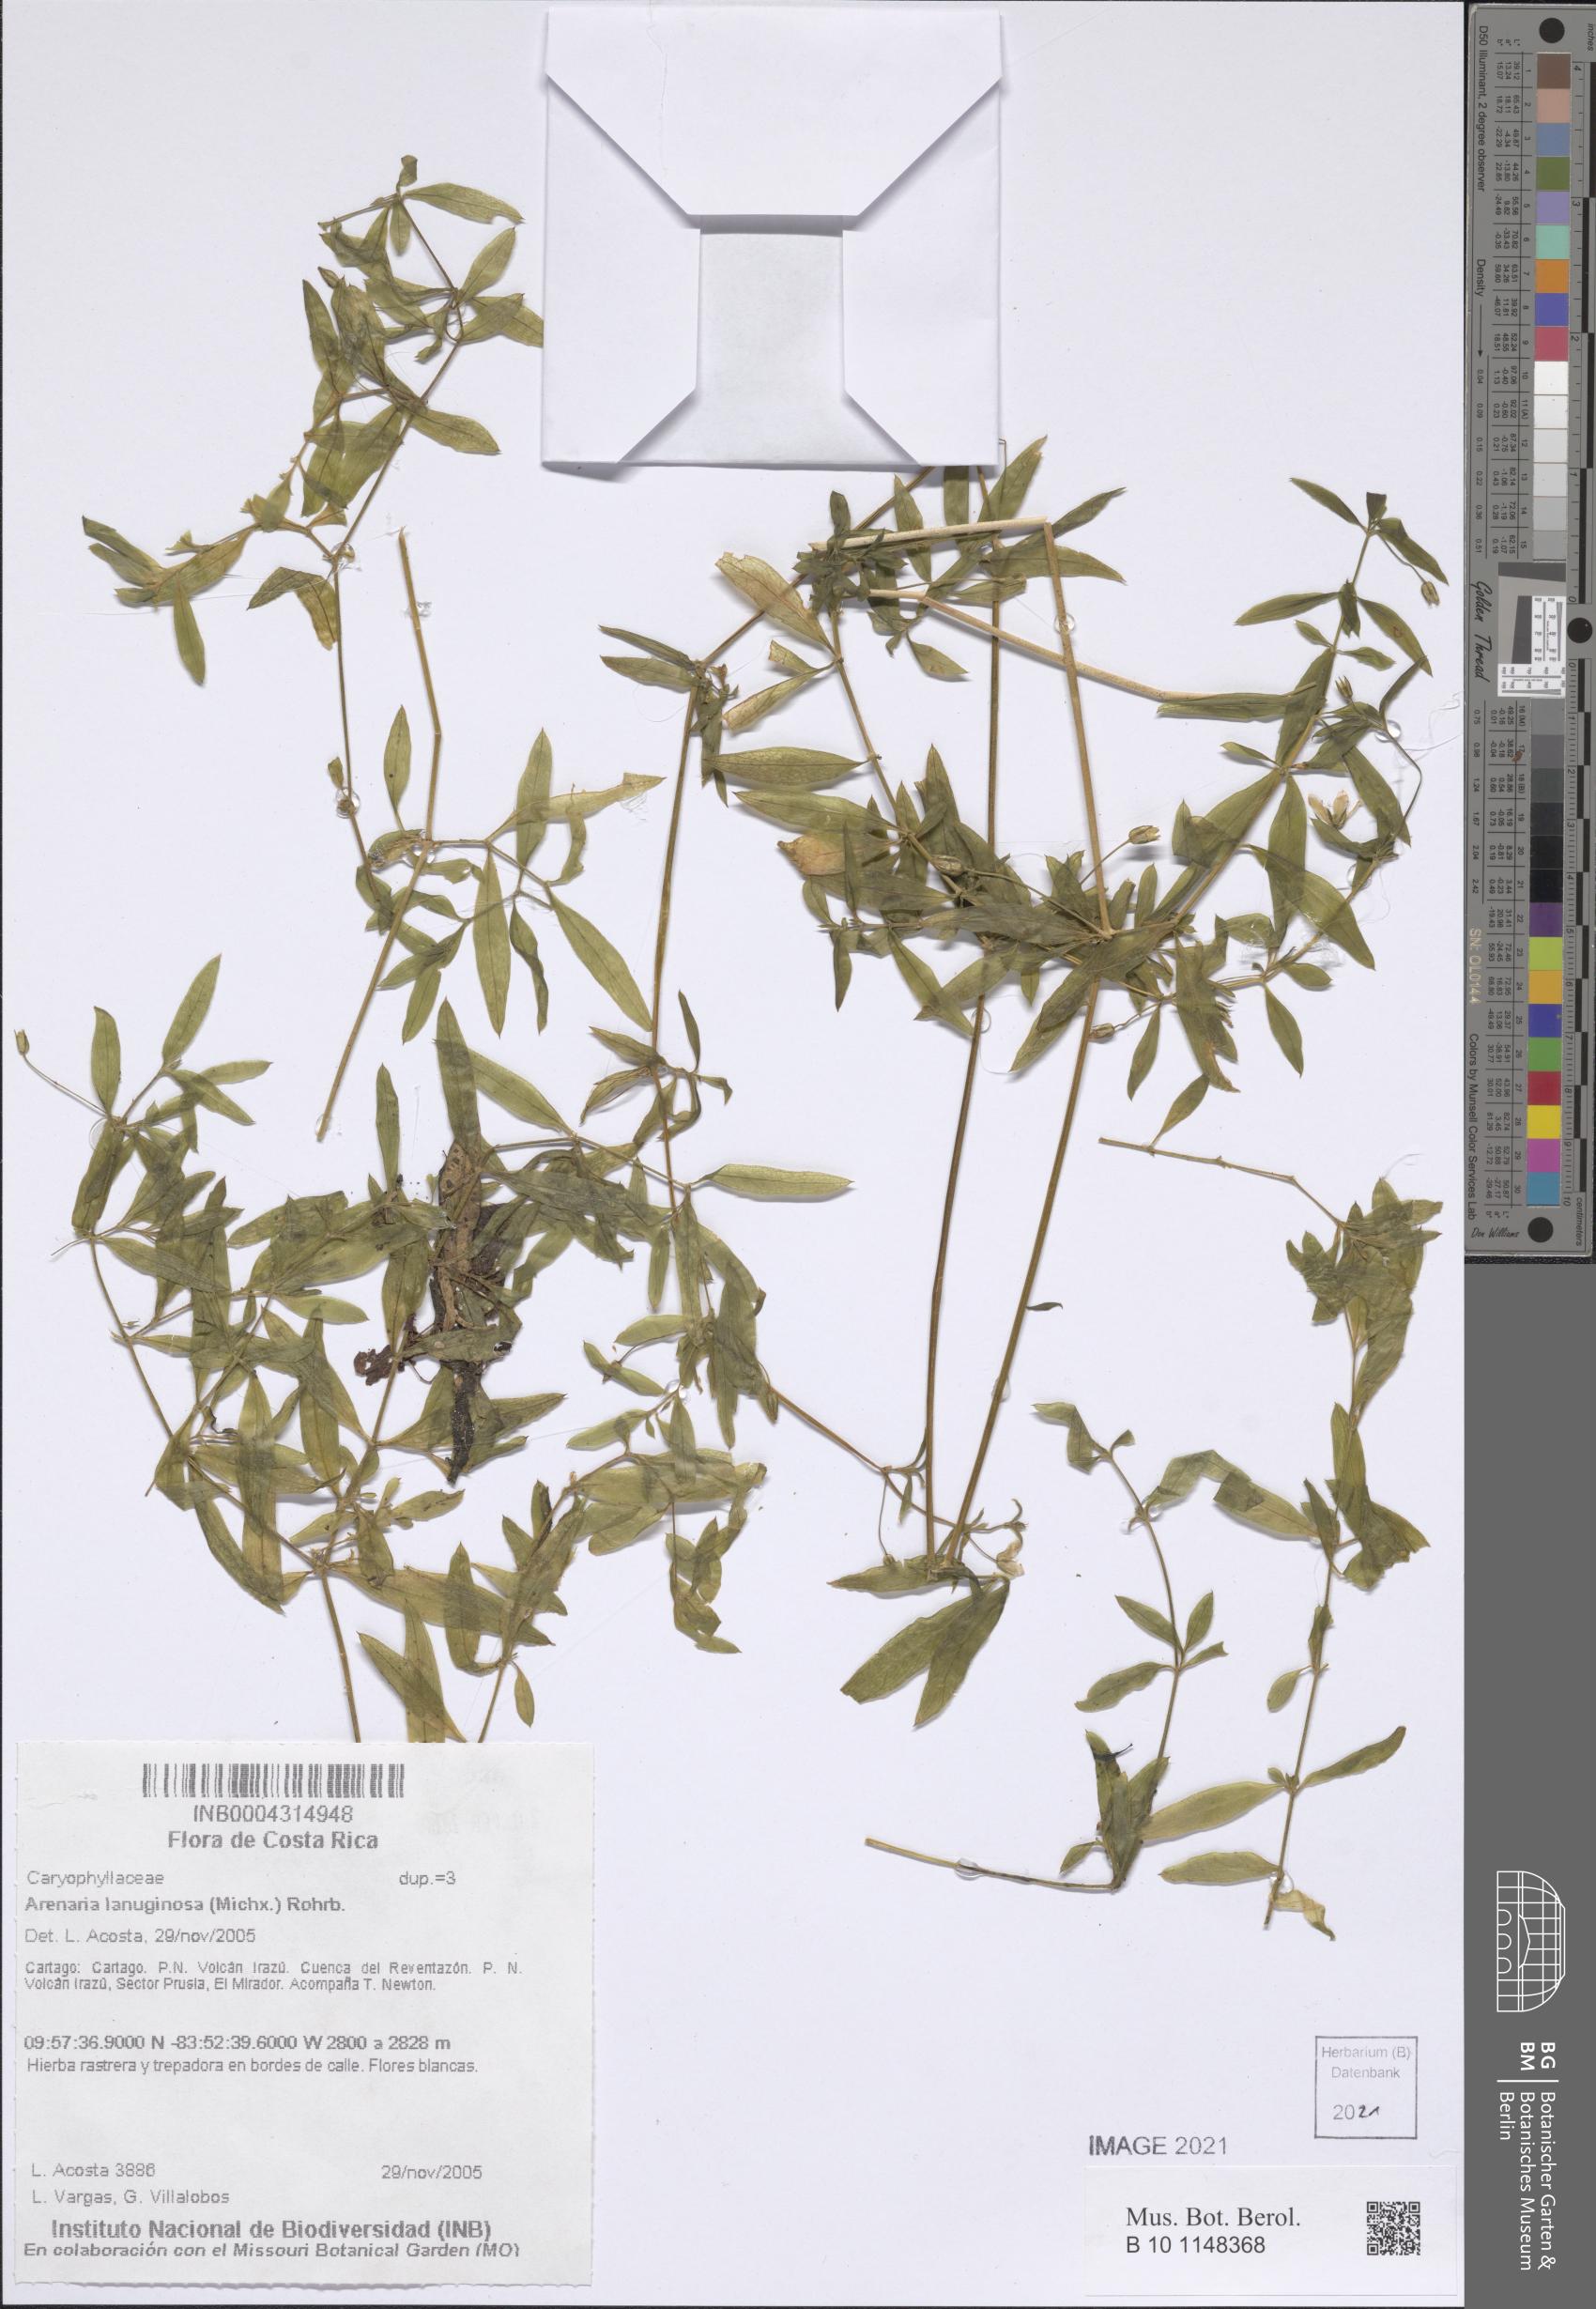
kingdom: Plantae
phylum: Tracheophyta
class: Magnoliopsida
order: Caryophyllales
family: Caryophyllaceae
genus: Arenaria
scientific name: Arenaria lanuginosa
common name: Spread sandwort
